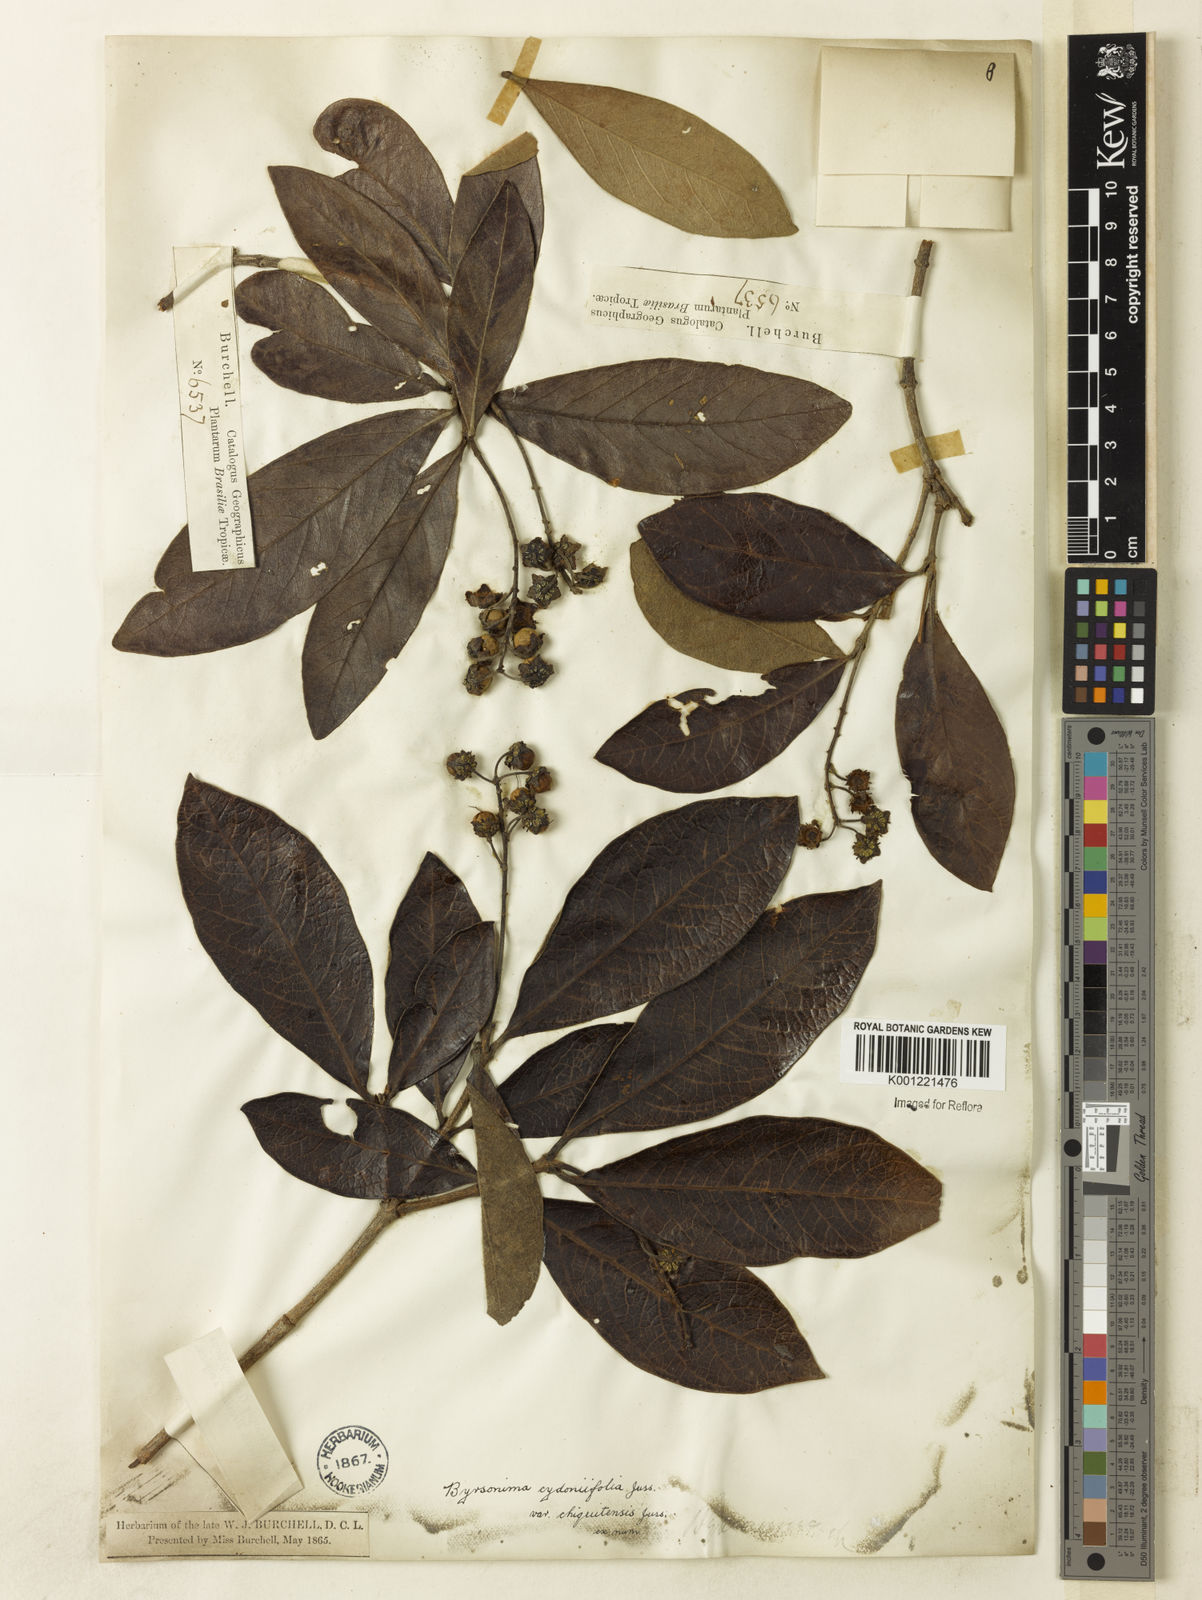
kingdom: Plantae
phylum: Tracheophyta
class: Magnoliopsida
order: Malpighiales
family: Malpighiaceae
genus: Byrsonima
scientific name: Byrsonima cydoniifolia
